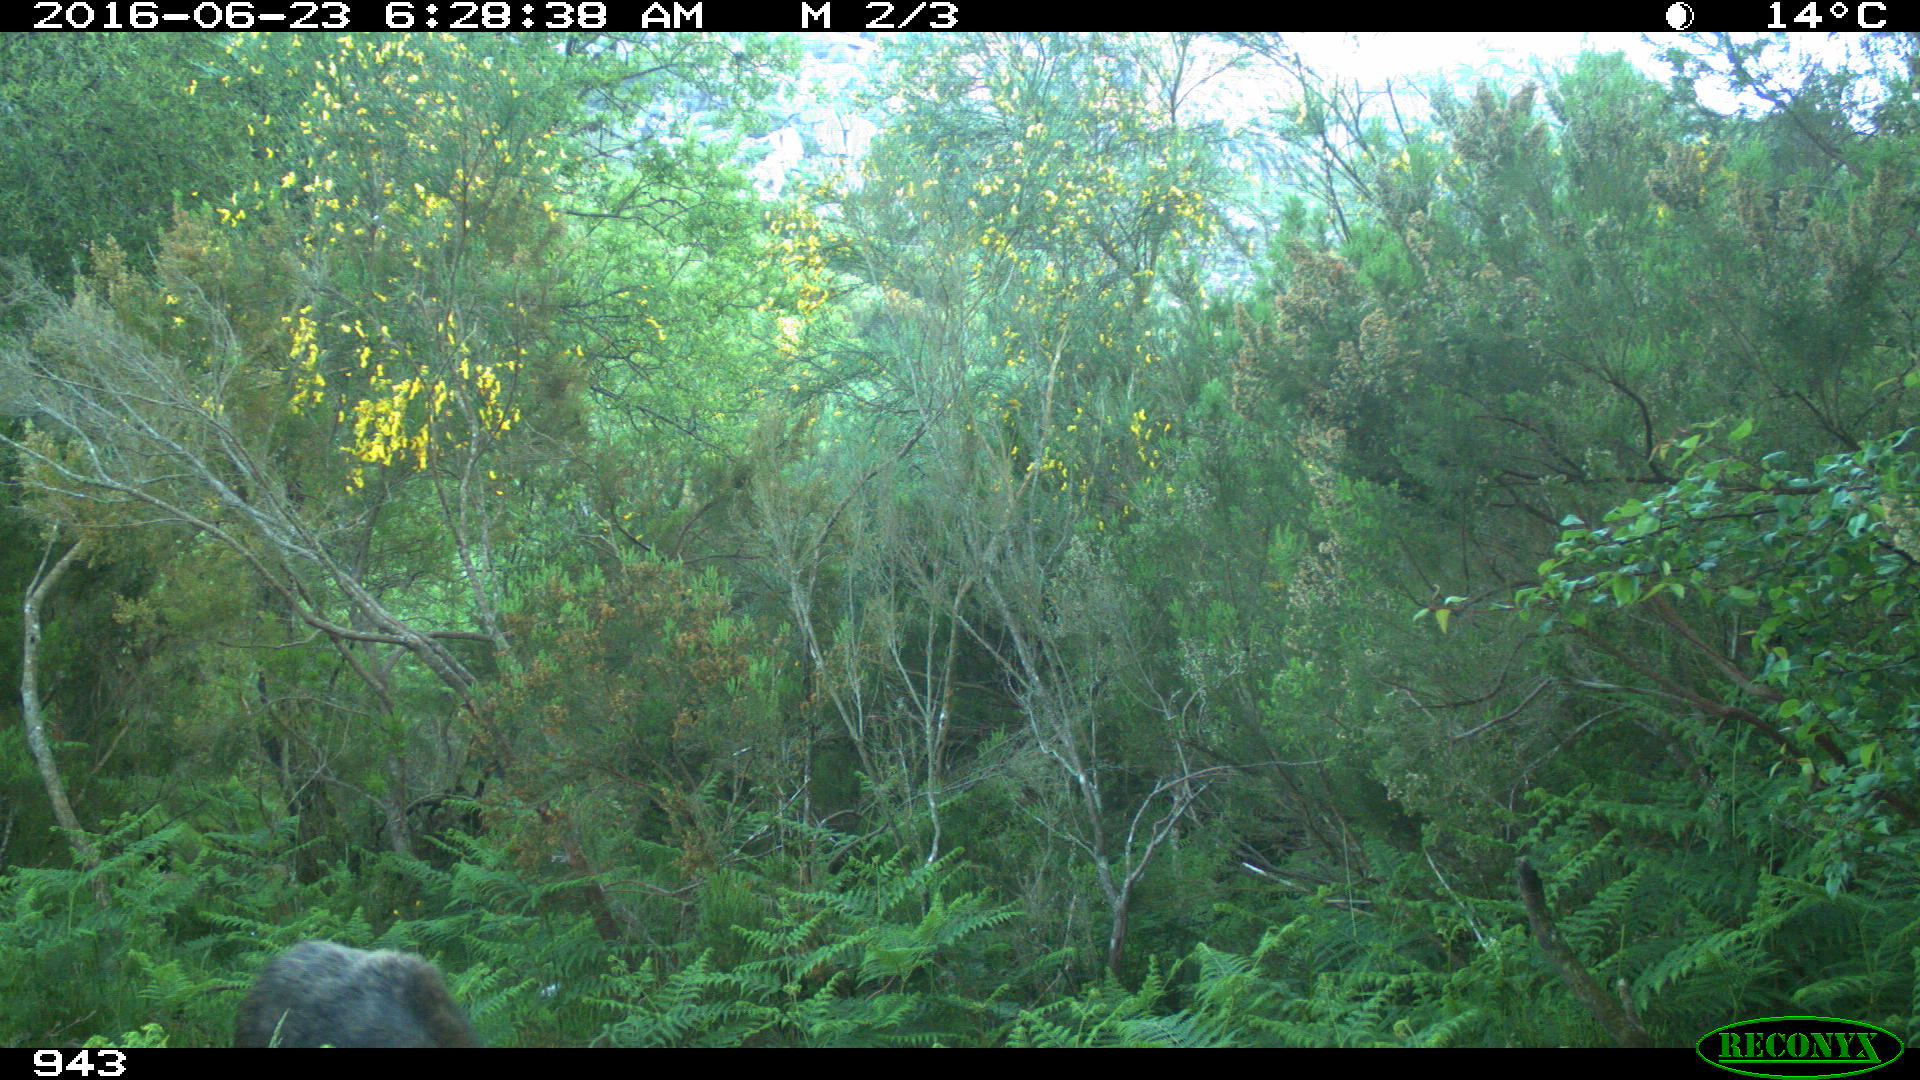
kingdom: Animalia
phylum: Chordata
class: Mammalia
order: Artiodactyla
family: Suidae
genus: Sus
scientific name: Sus scrofa
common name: Wild boar
